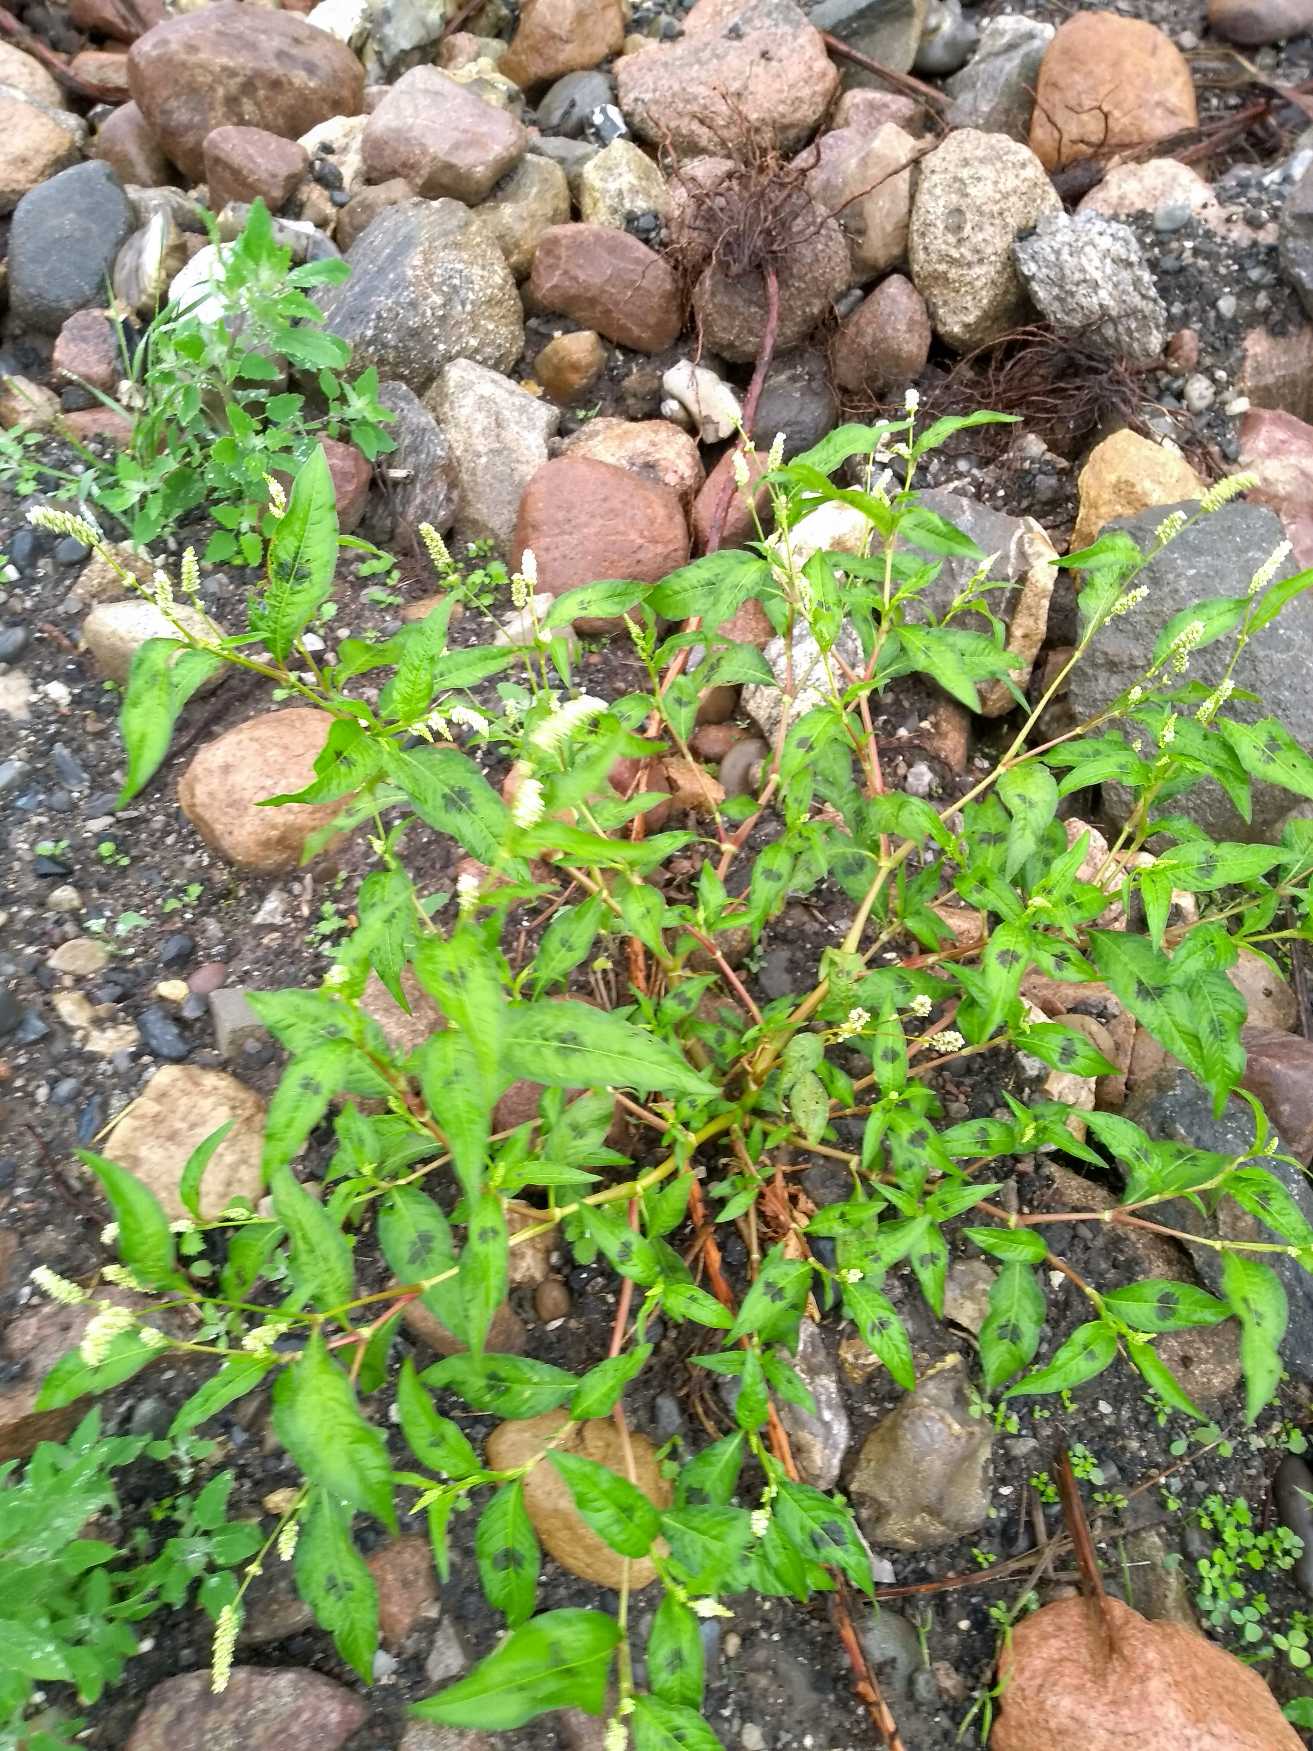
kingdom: Plantae
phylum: Tracheophyta
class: Magnoliopsida
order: Caryophyllales
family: Polygonaceae
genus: Persicaria
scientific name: Persicaria
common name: Pileurt (Persicaria-slægten)
